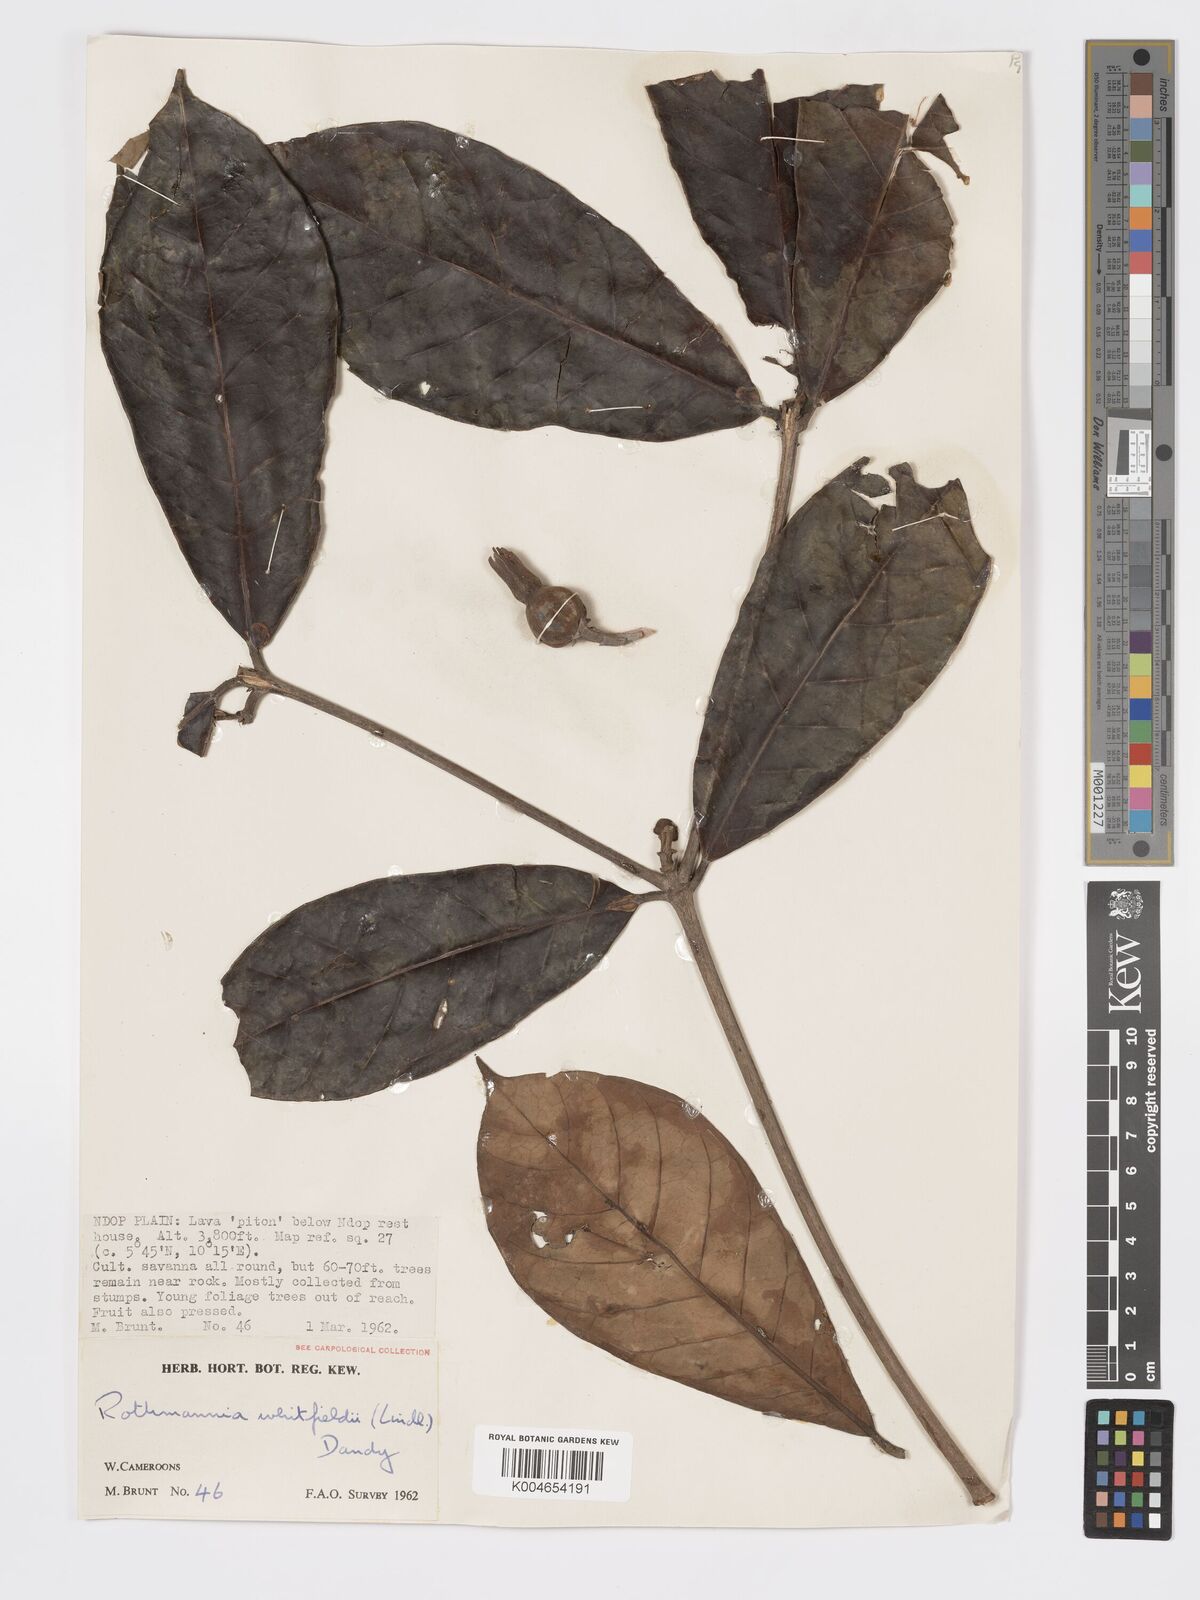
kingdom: Plantae
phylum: Tracheophyta
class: Magnoliopsida
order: Gentianales
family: Rubiaceae
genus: Rothmannia
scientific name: Rothmannia whitfieldii
